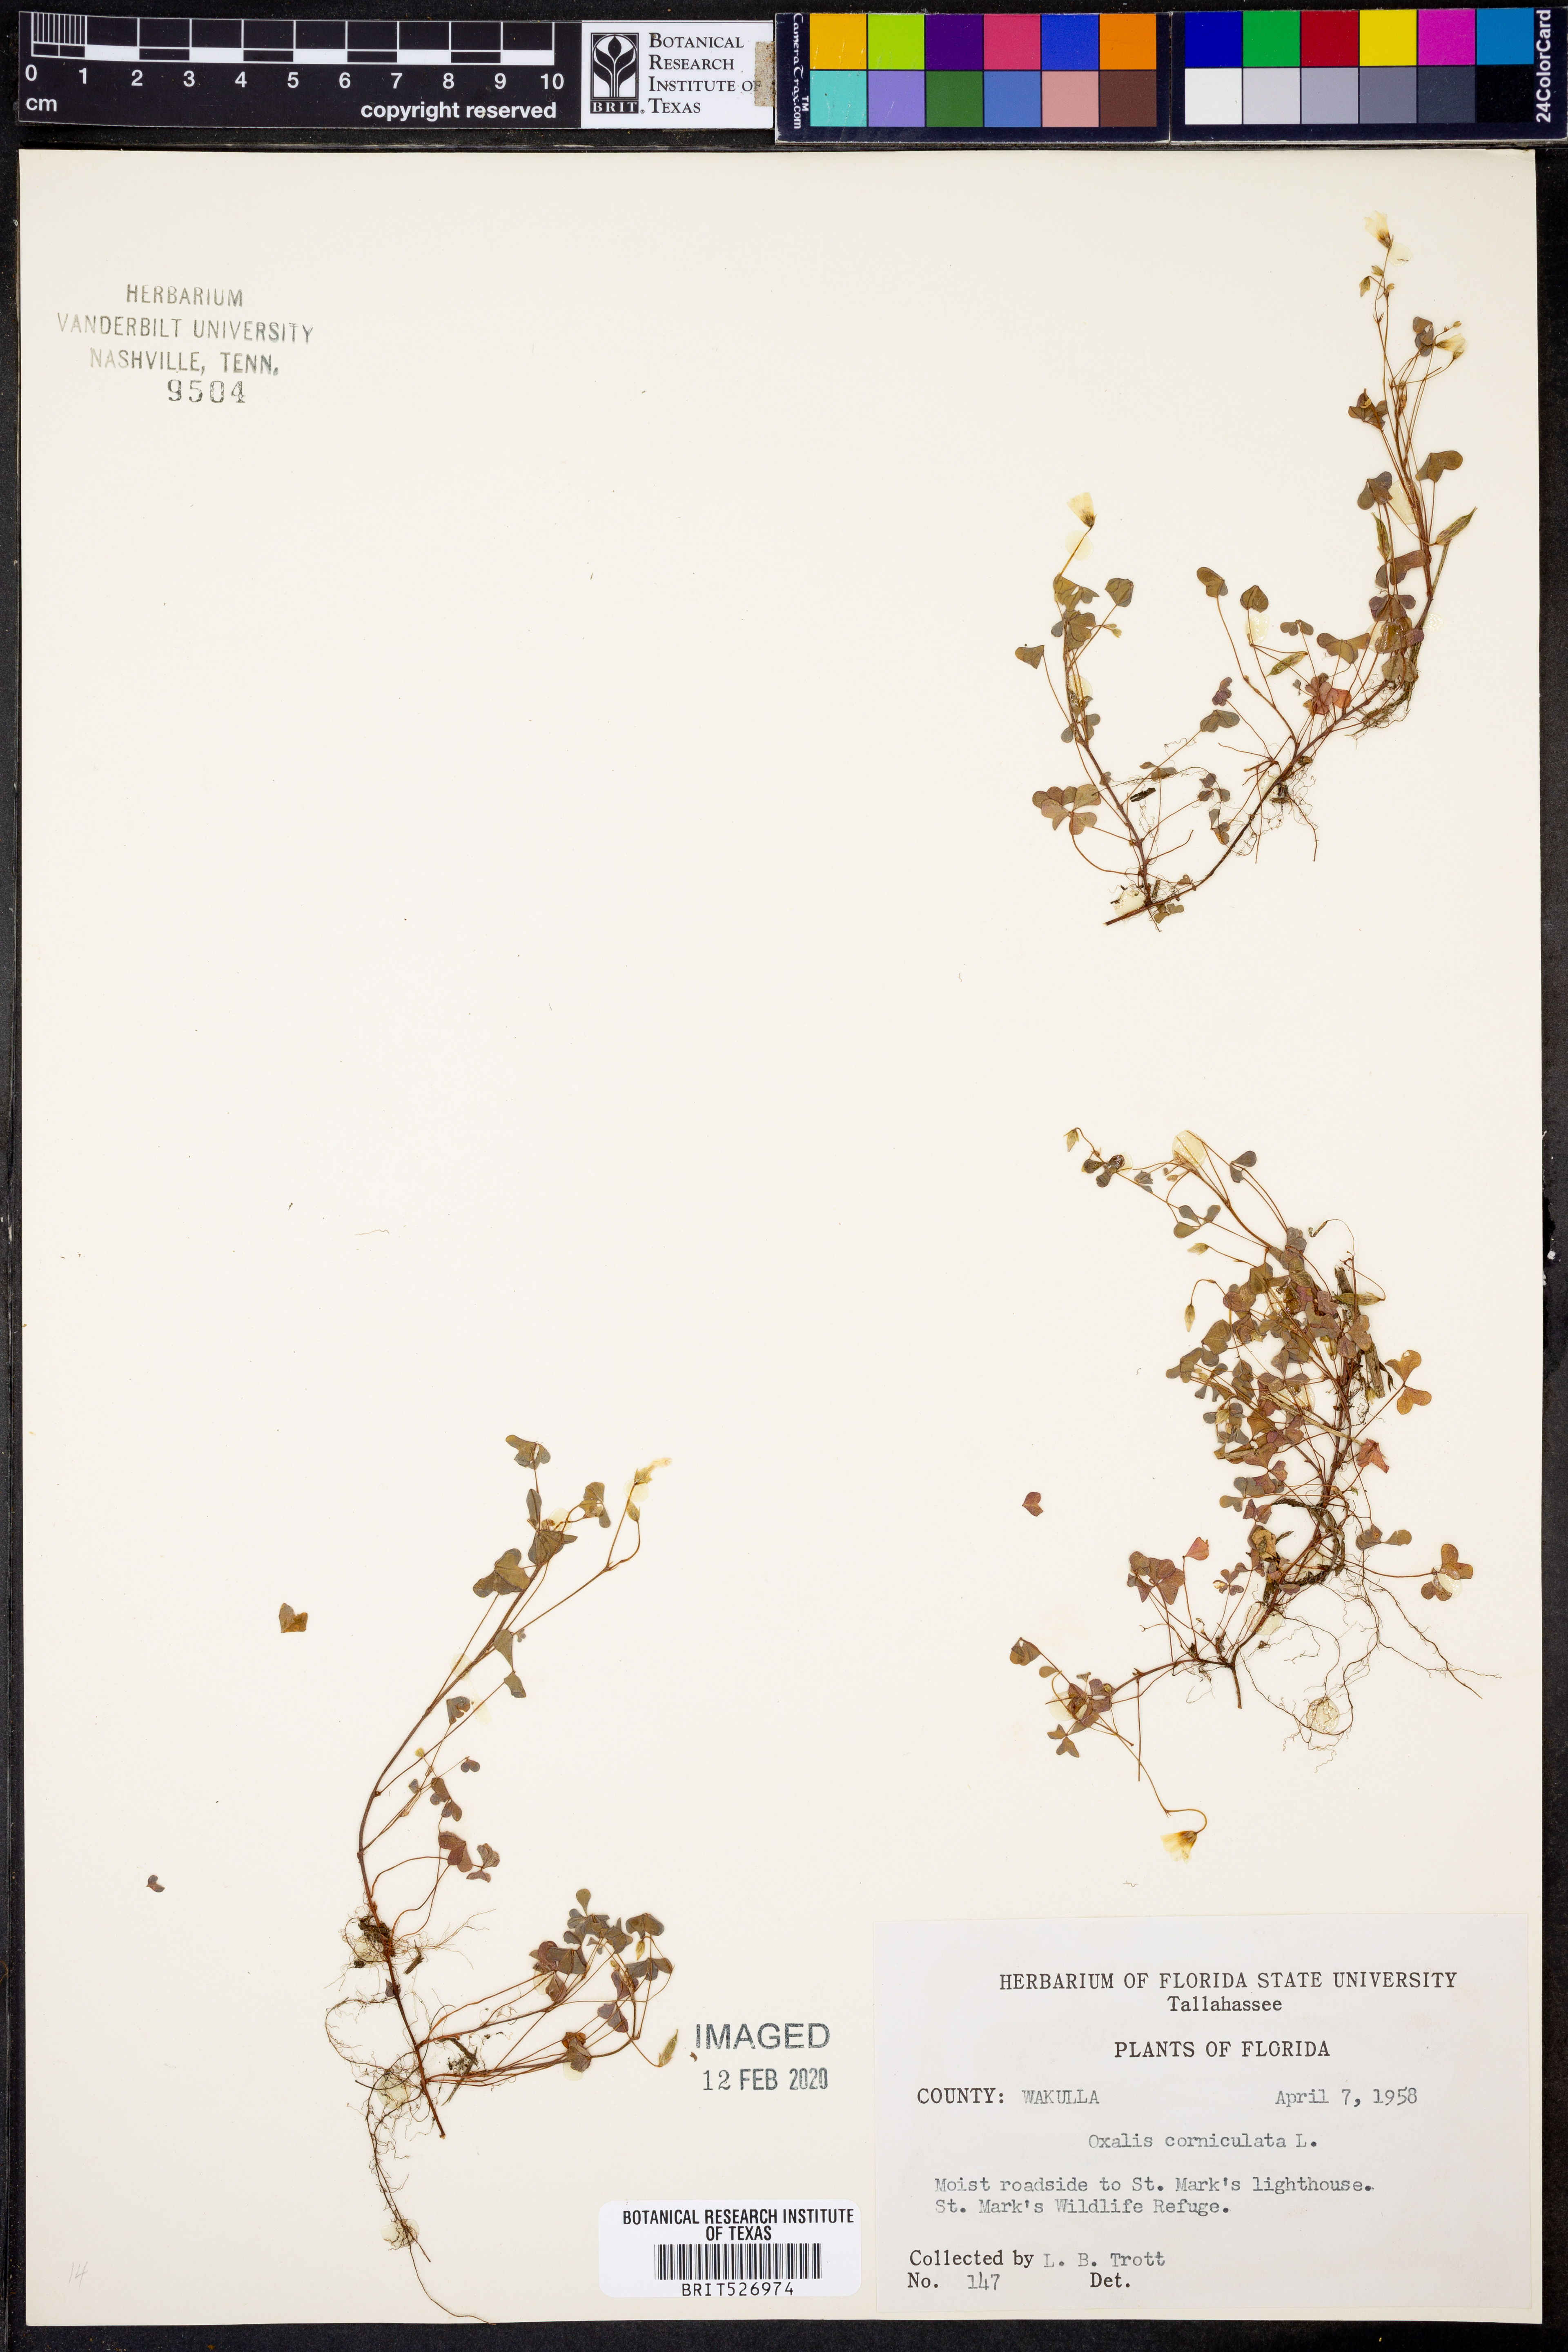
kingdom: Plantae
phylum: Tracheophyta
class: Magnoliopsida
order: Oxalidales
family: Oxalidaceae
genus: Oxalis
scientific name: Oxalis corniculata
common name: Procumbent yellow-sorrel
